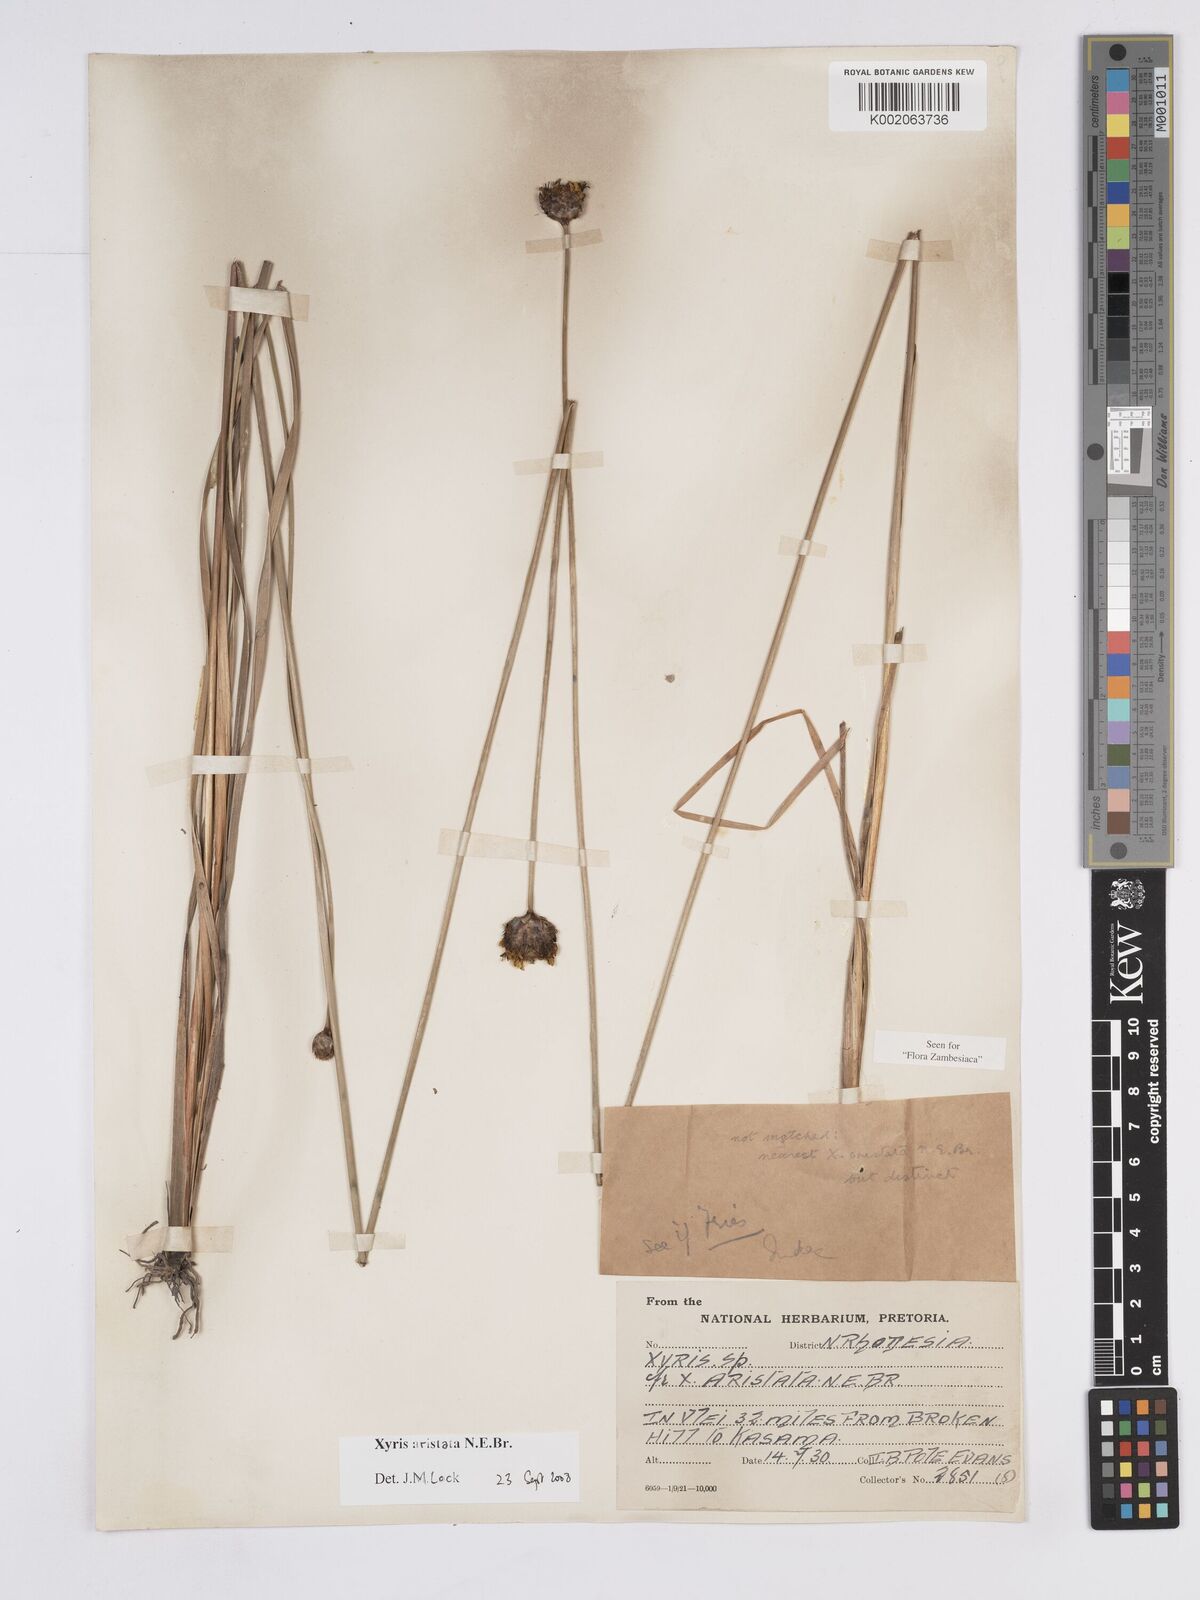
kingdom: Plantae
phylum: Tracheophyta
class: Liliopsida
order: Poales
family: Xyridaceae
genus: Xyris
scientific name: Xyris aristata
